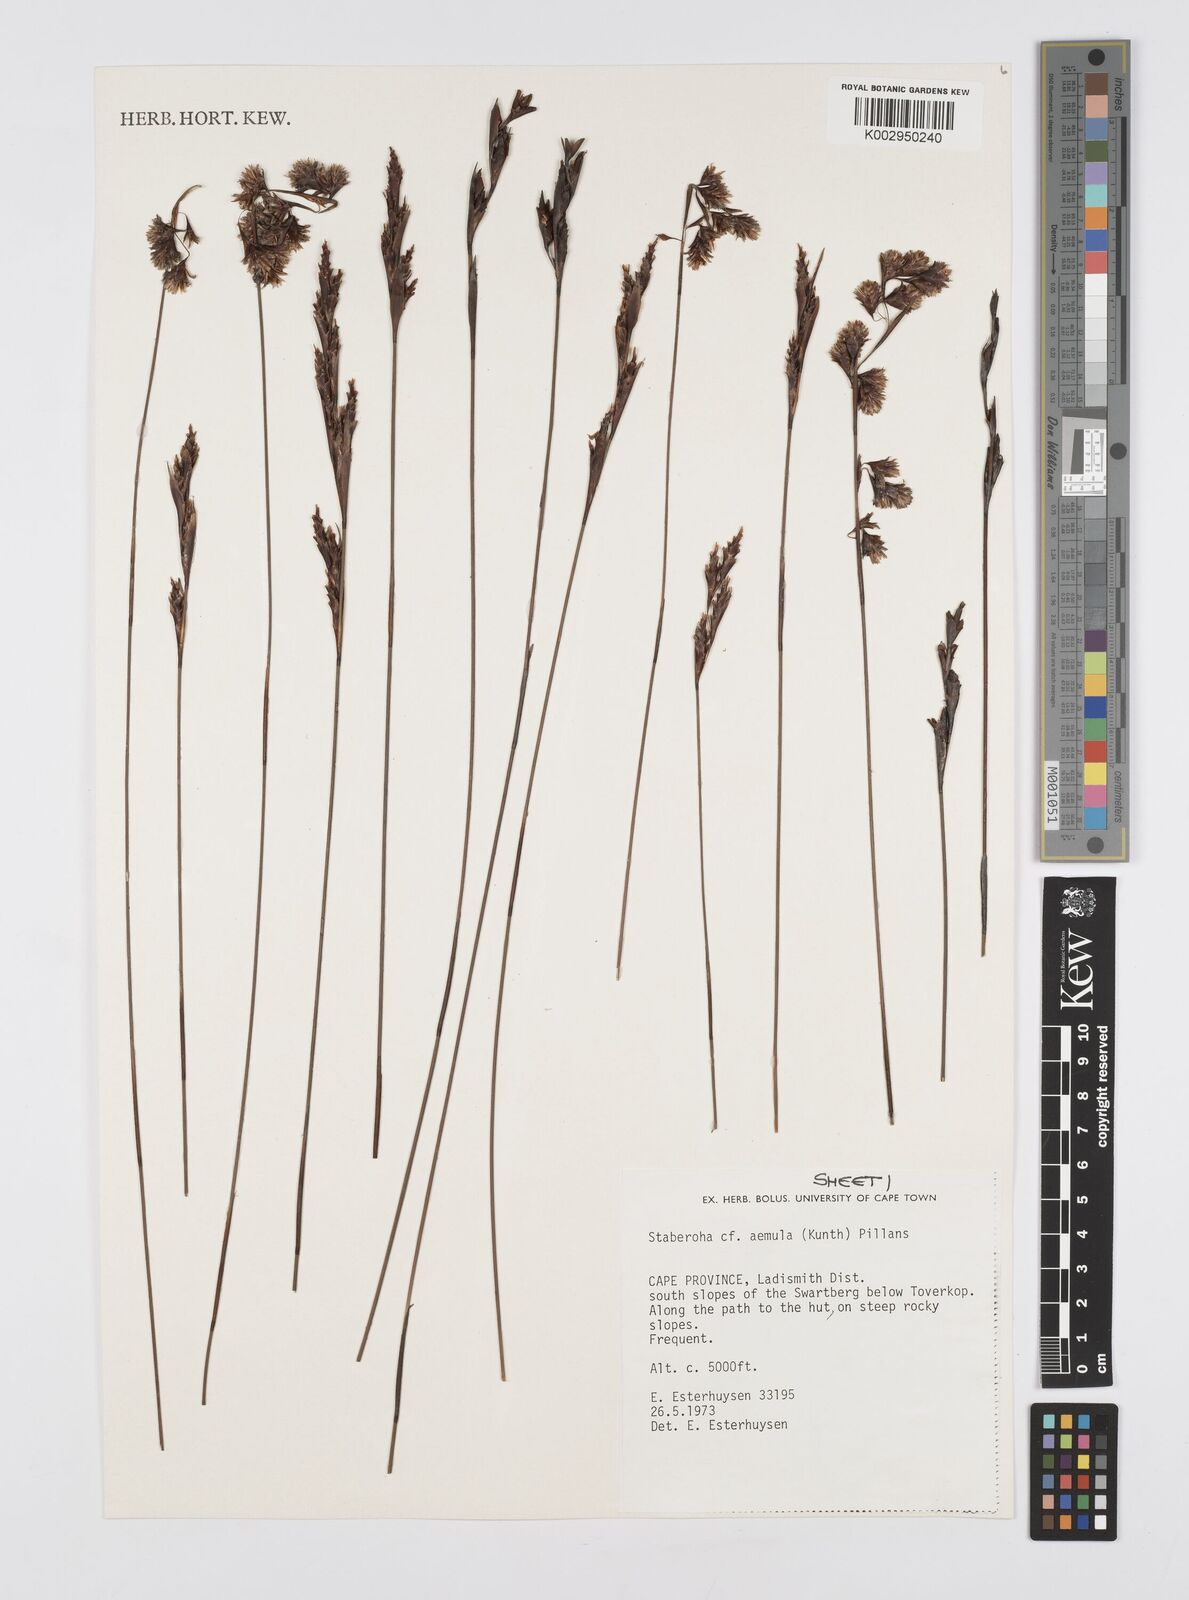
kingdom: Plantae
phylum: Tracheophyta
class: Liliopsida
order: Poales
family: Restionaceae
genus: Staberoha
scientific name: Staberoha aemula
